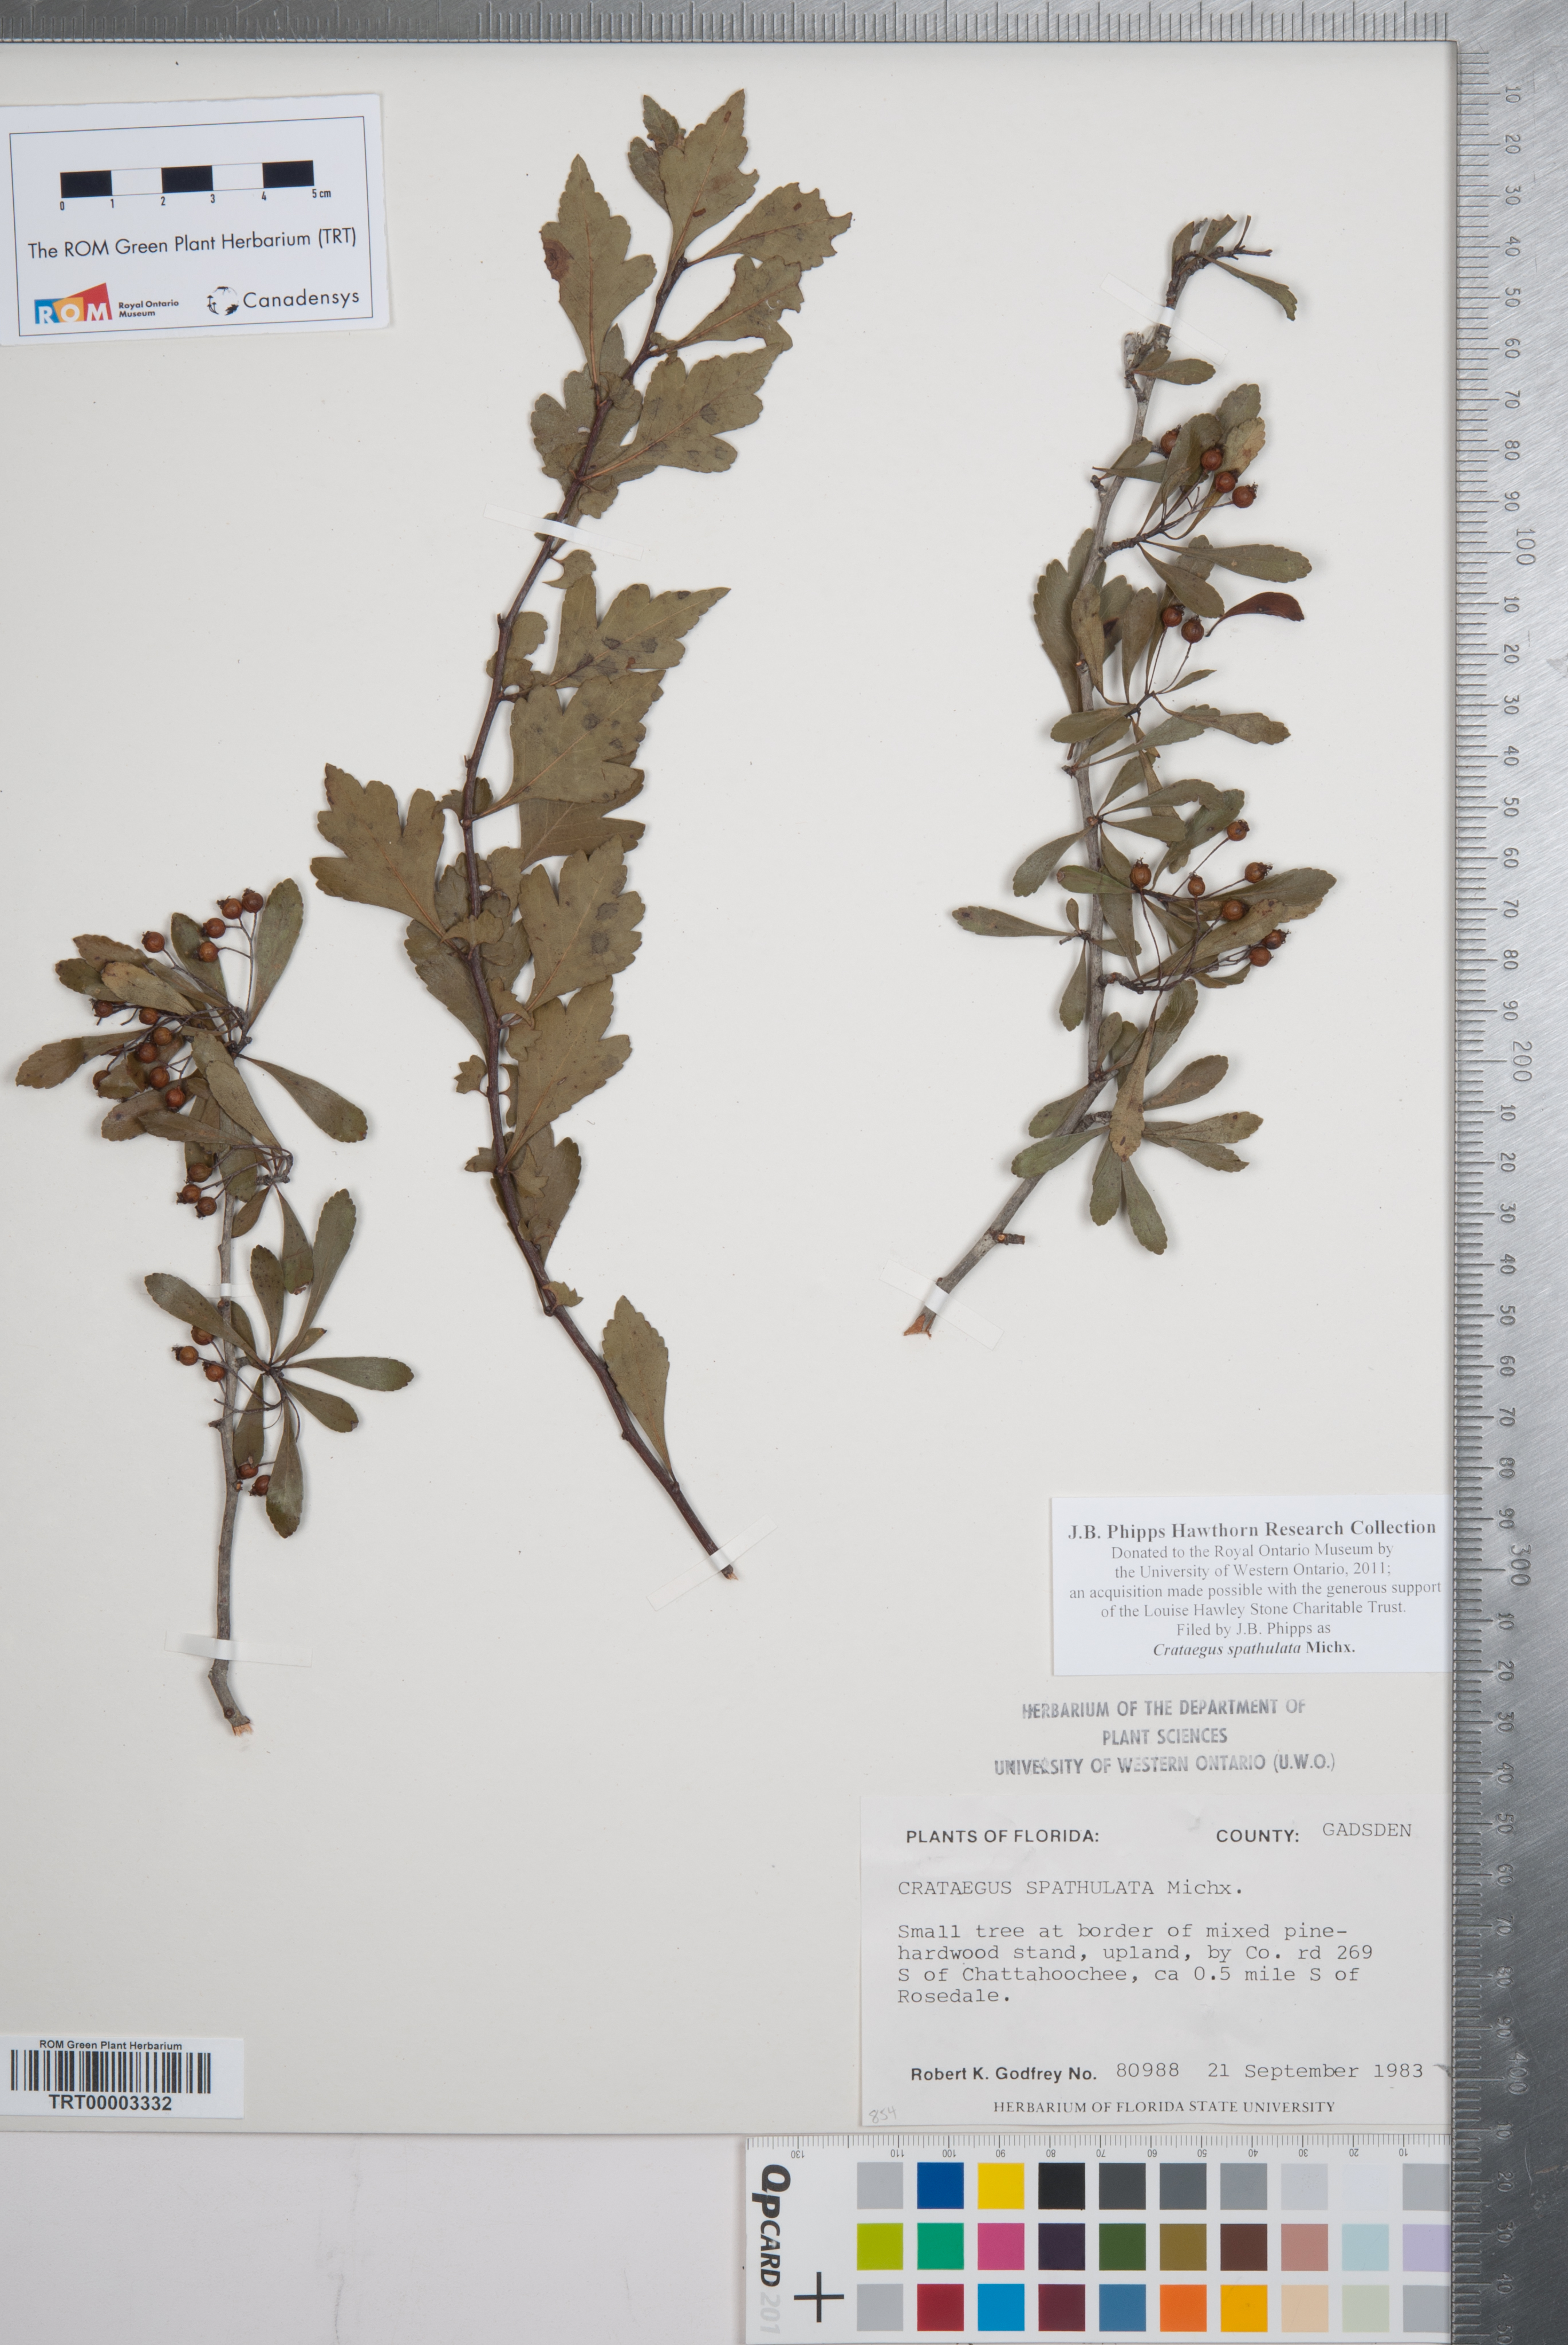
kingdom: Plantae
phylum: Tracheophyta
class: Magnoliopsida
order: Rosales
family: Rosaceae
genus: Crataegus
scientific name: Crataegus spathulata
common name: Littlehip hawthorn
